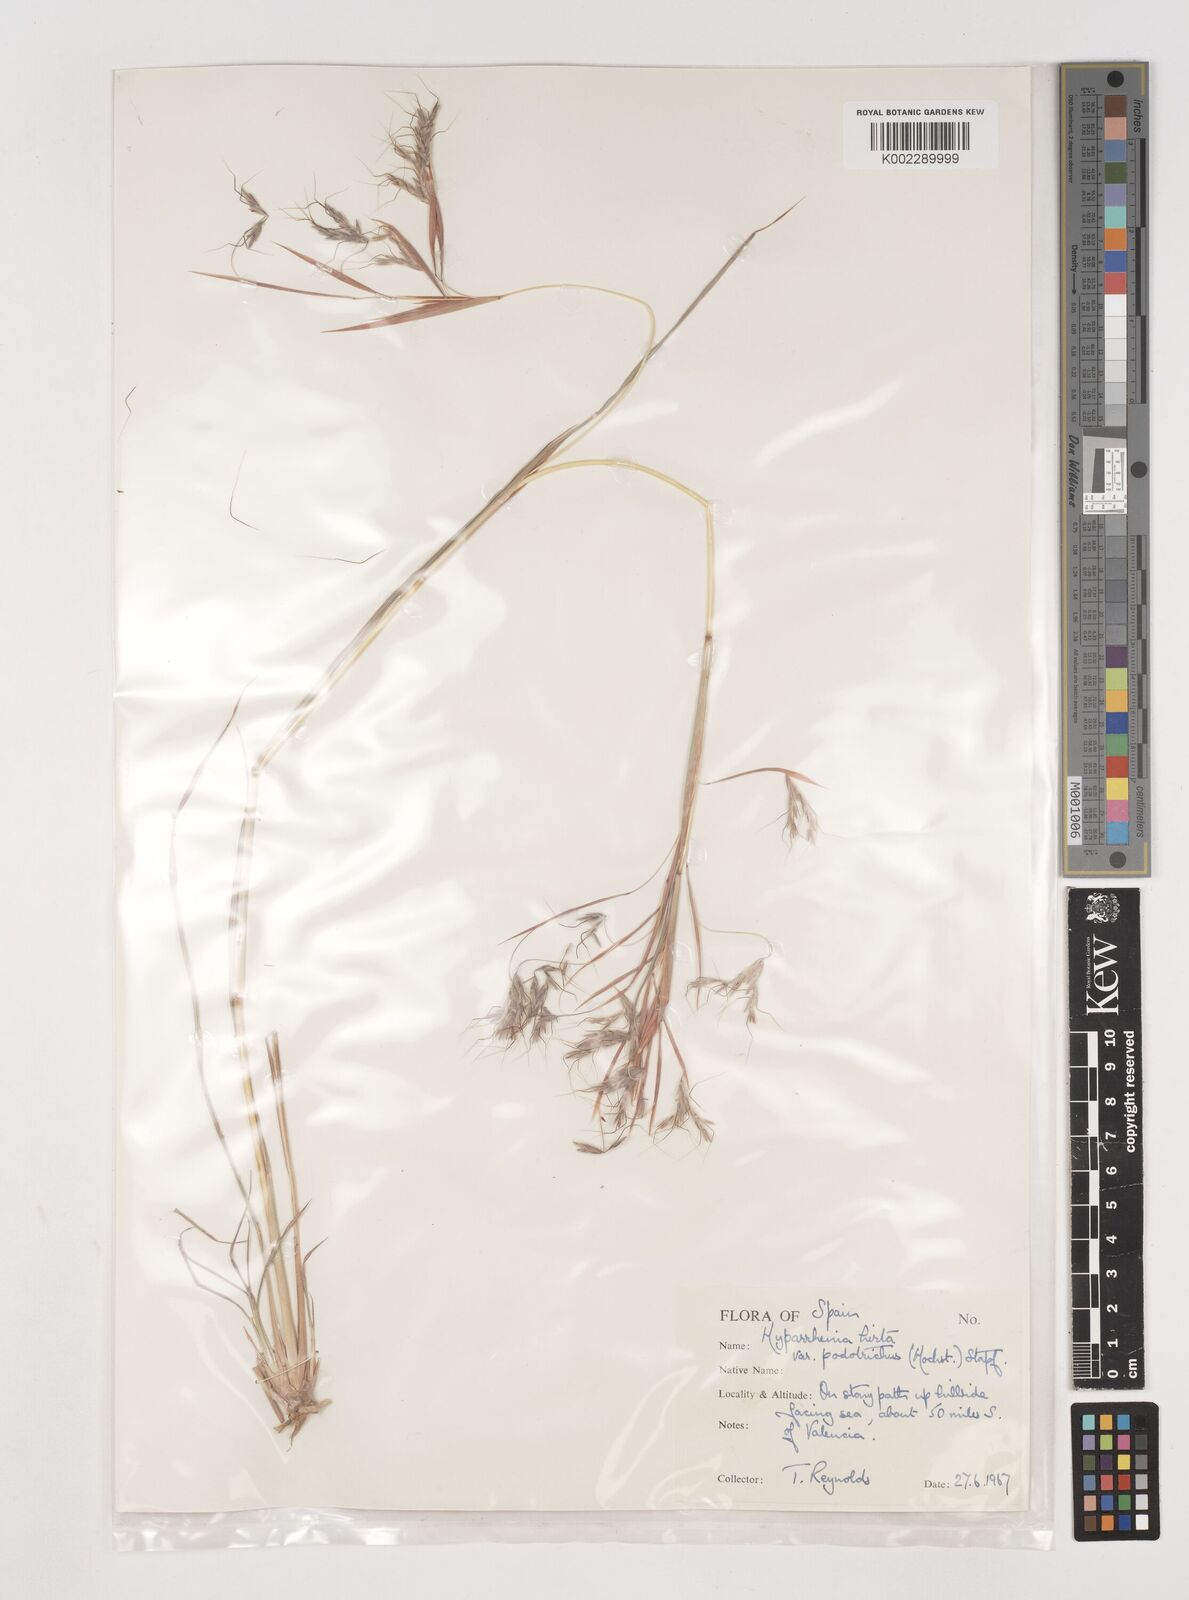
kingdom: Plantae
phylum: Tracheophyta
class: Liliopsida
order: Poales
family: Poaceae
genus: Hyparrhenia
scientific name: Hyparrhenia hirta
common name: Thatching grass
